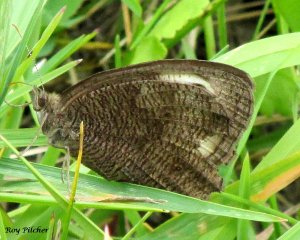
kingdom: Animalia
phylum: Arthropoda
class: Insecta
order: Lepidoptera
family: Nymphalidae
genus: Cercyonis
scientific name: Cercyonis pegala
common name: Common Wood-Nymph
